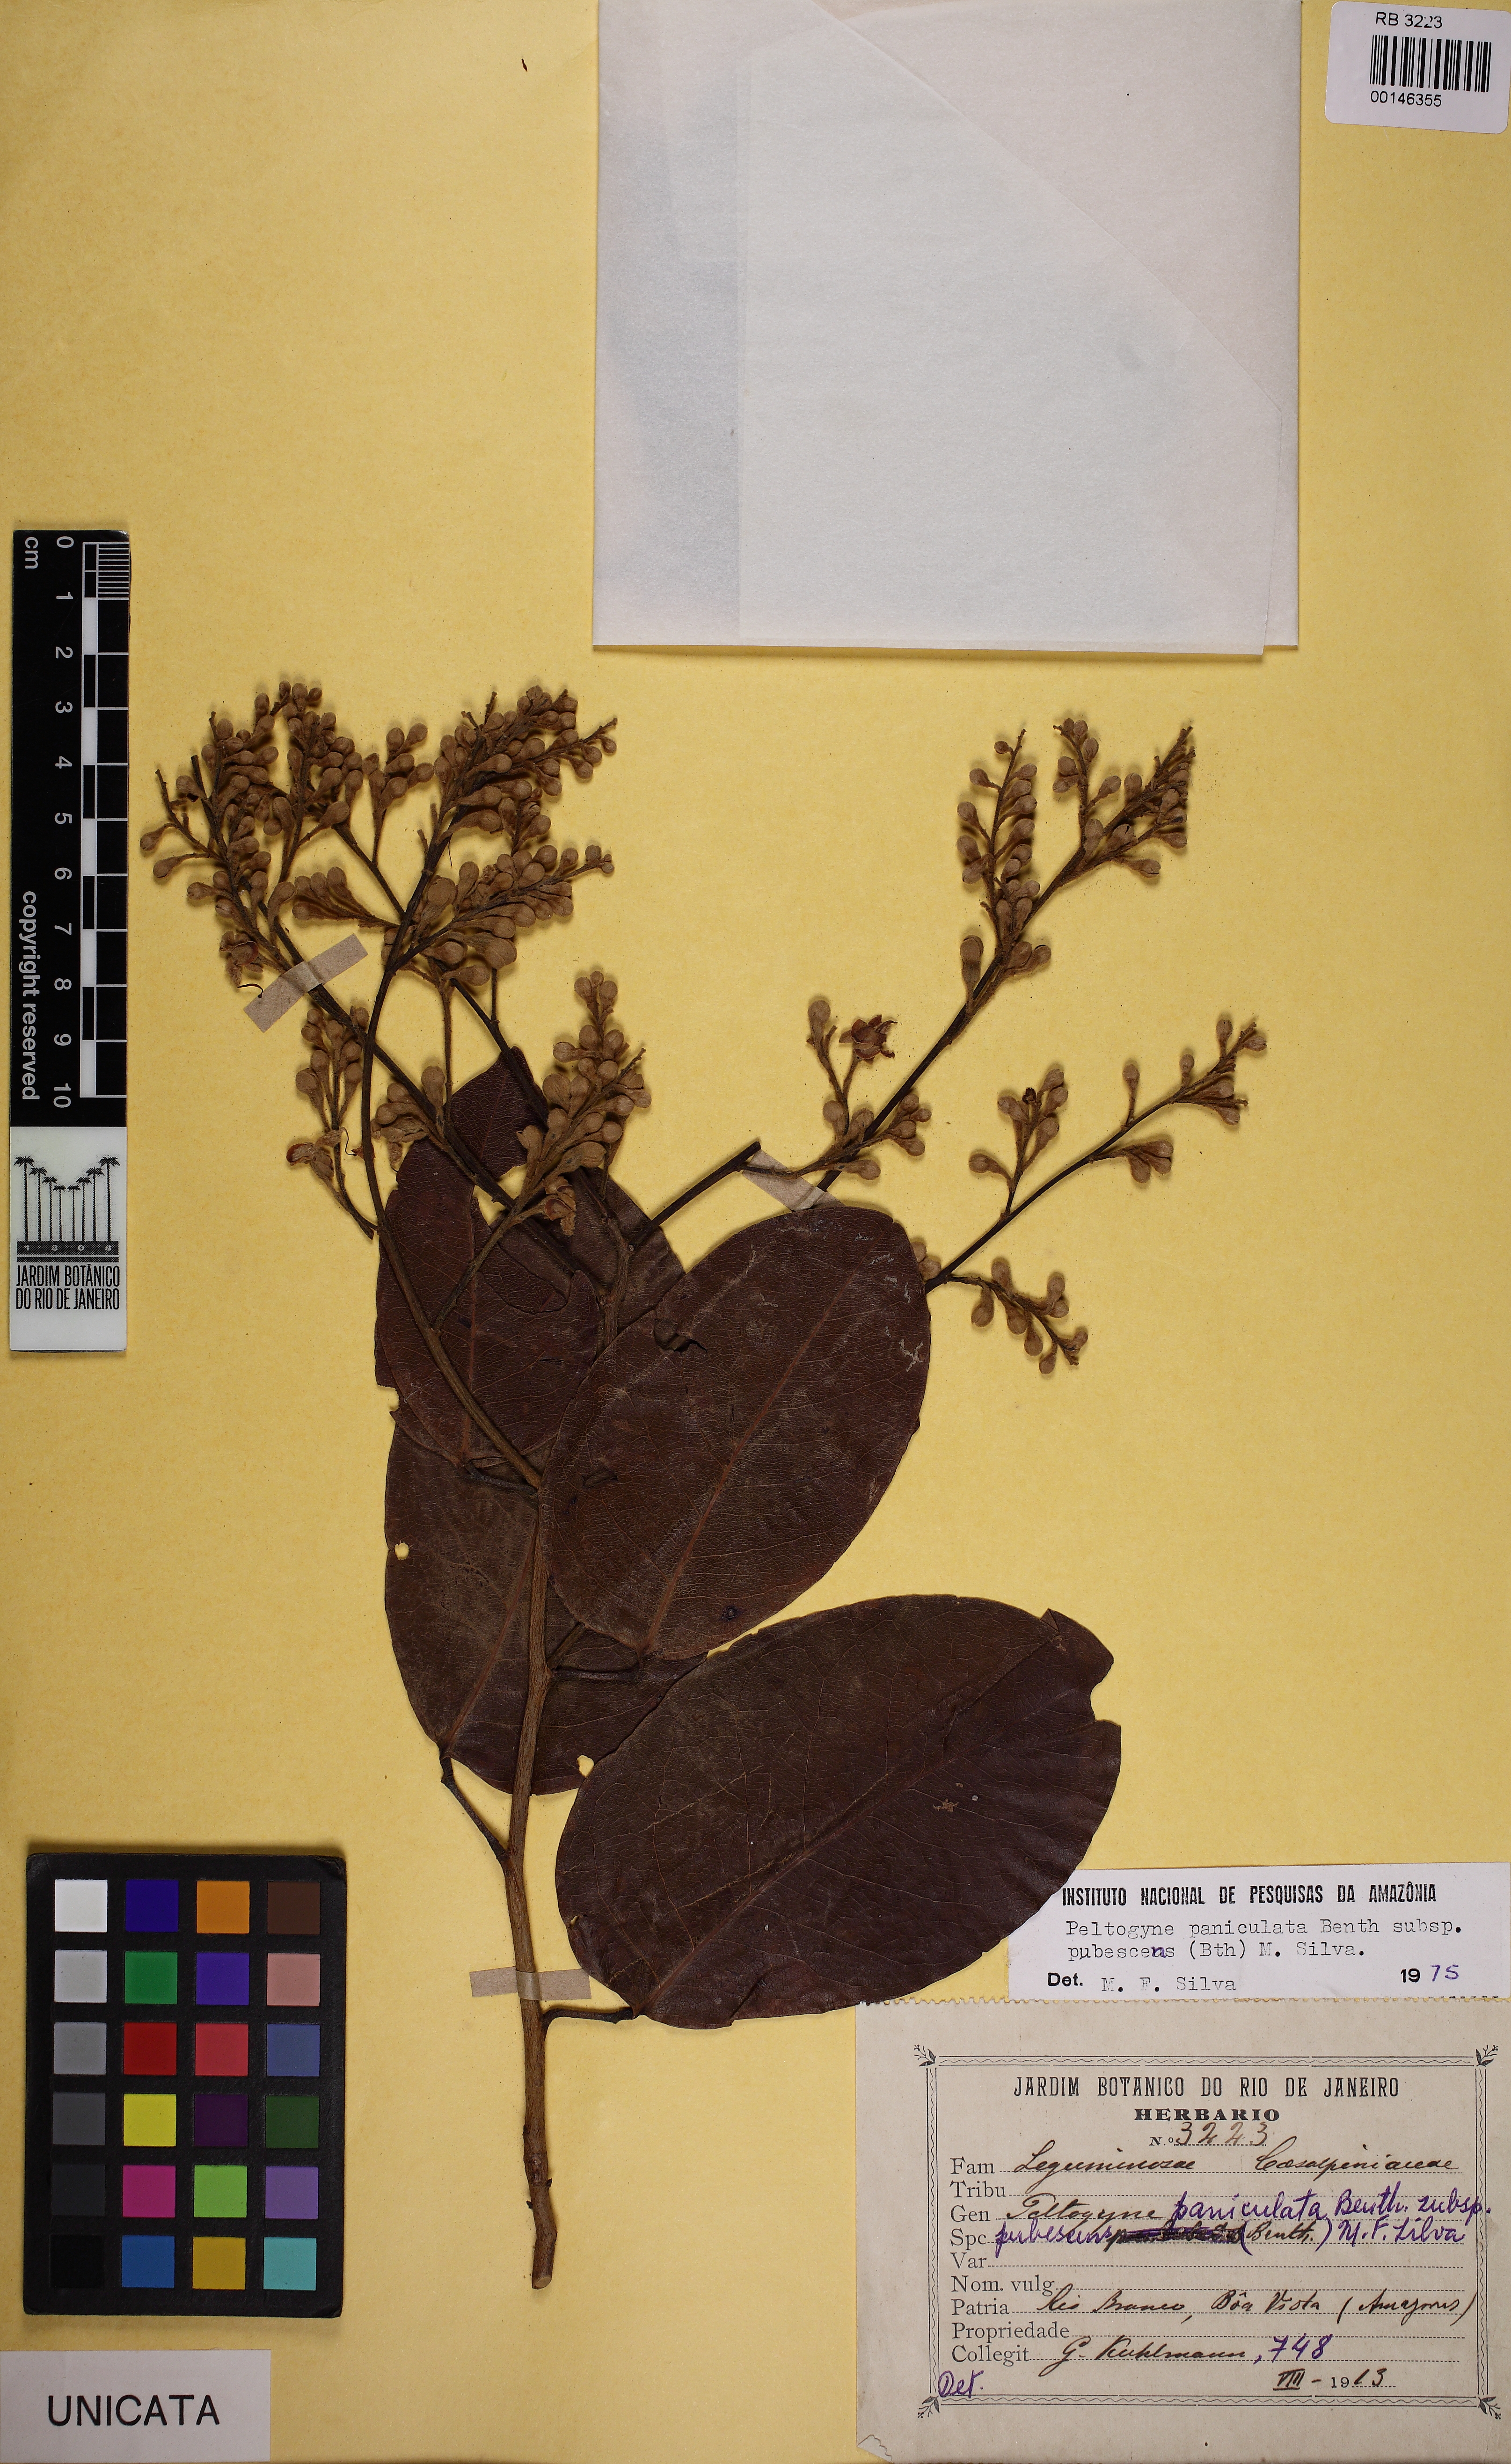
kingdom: Plantae
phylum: Tracheophyta
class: Magnoliopsida
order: Fabales
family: Fabaceae
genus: Peltogyne
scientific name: Peltogyne paniculata
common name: Purpleheart
